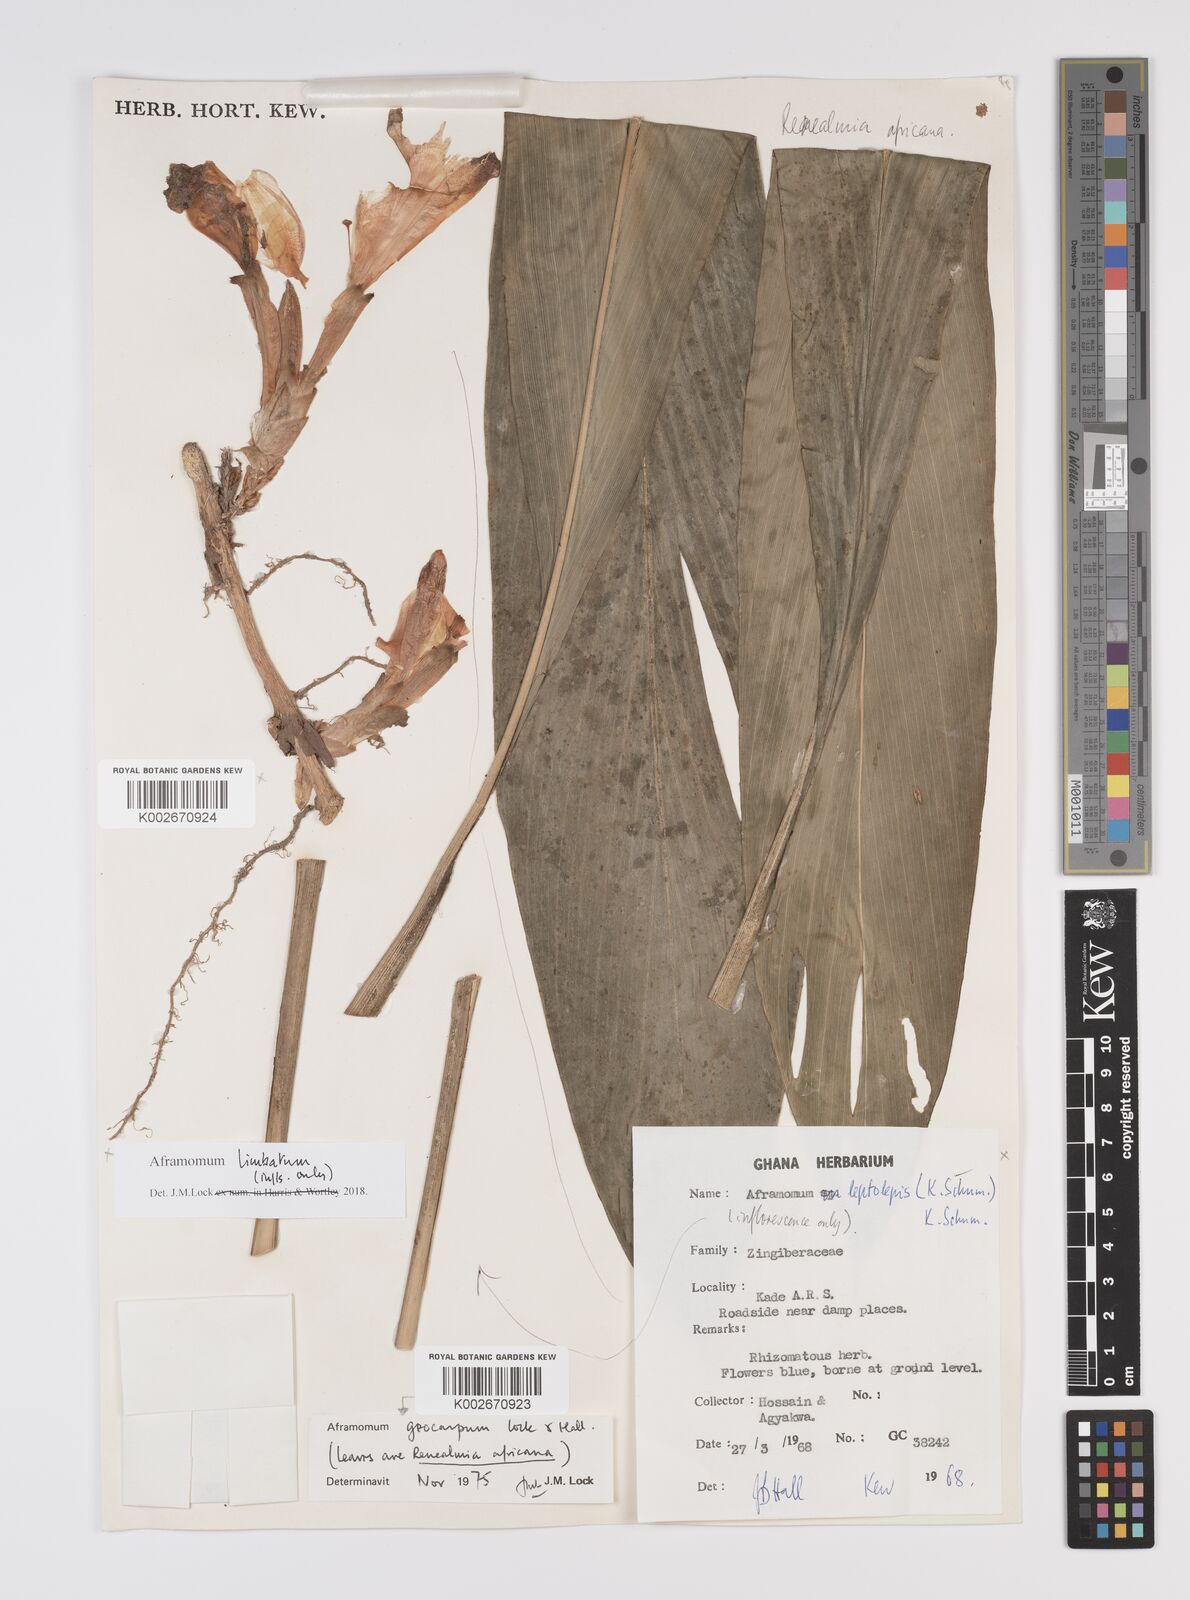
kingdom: Plantae
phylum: Tracheophyta
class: Liliopsida
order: Zingiberales
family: Zingiberaceae
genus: Aframomum
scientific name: Aframomum limbatum
